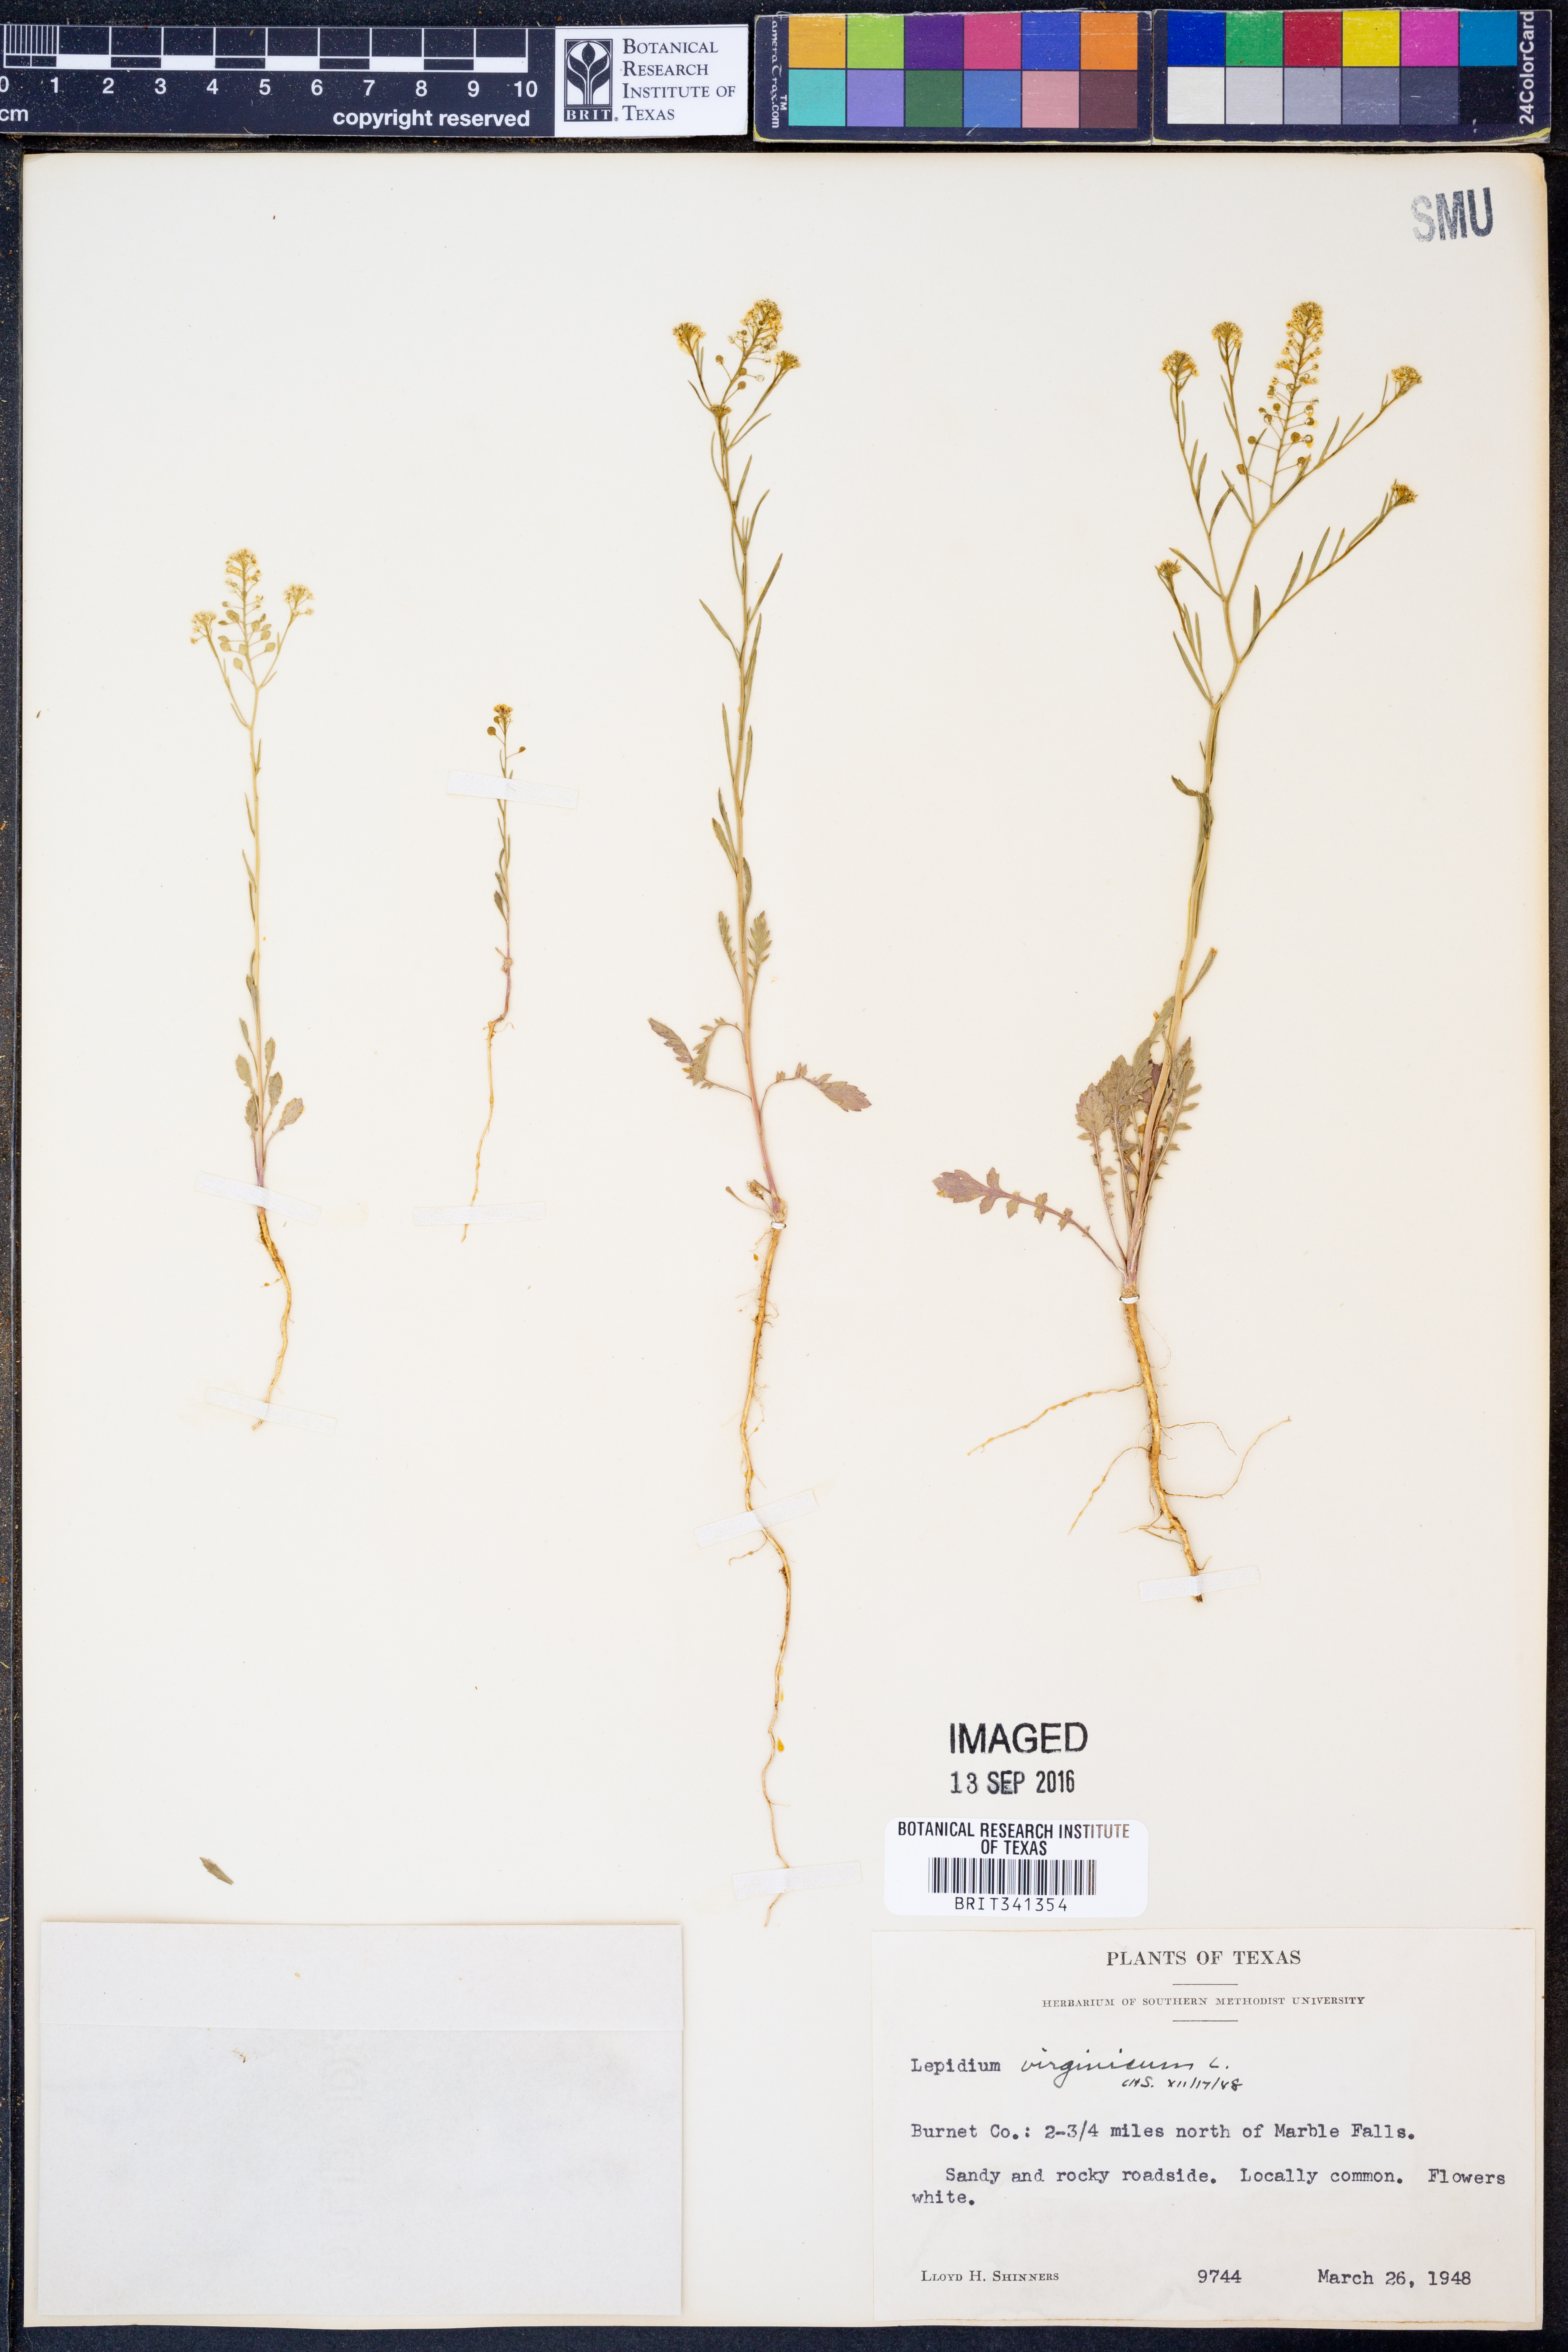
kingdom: Plantae
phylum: Tracheophyta
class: Magnoliopsida
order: Brassicales
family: Brassicaceae
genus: Lepidium
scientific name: Lepidium virginicum
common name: Least pepperwort
